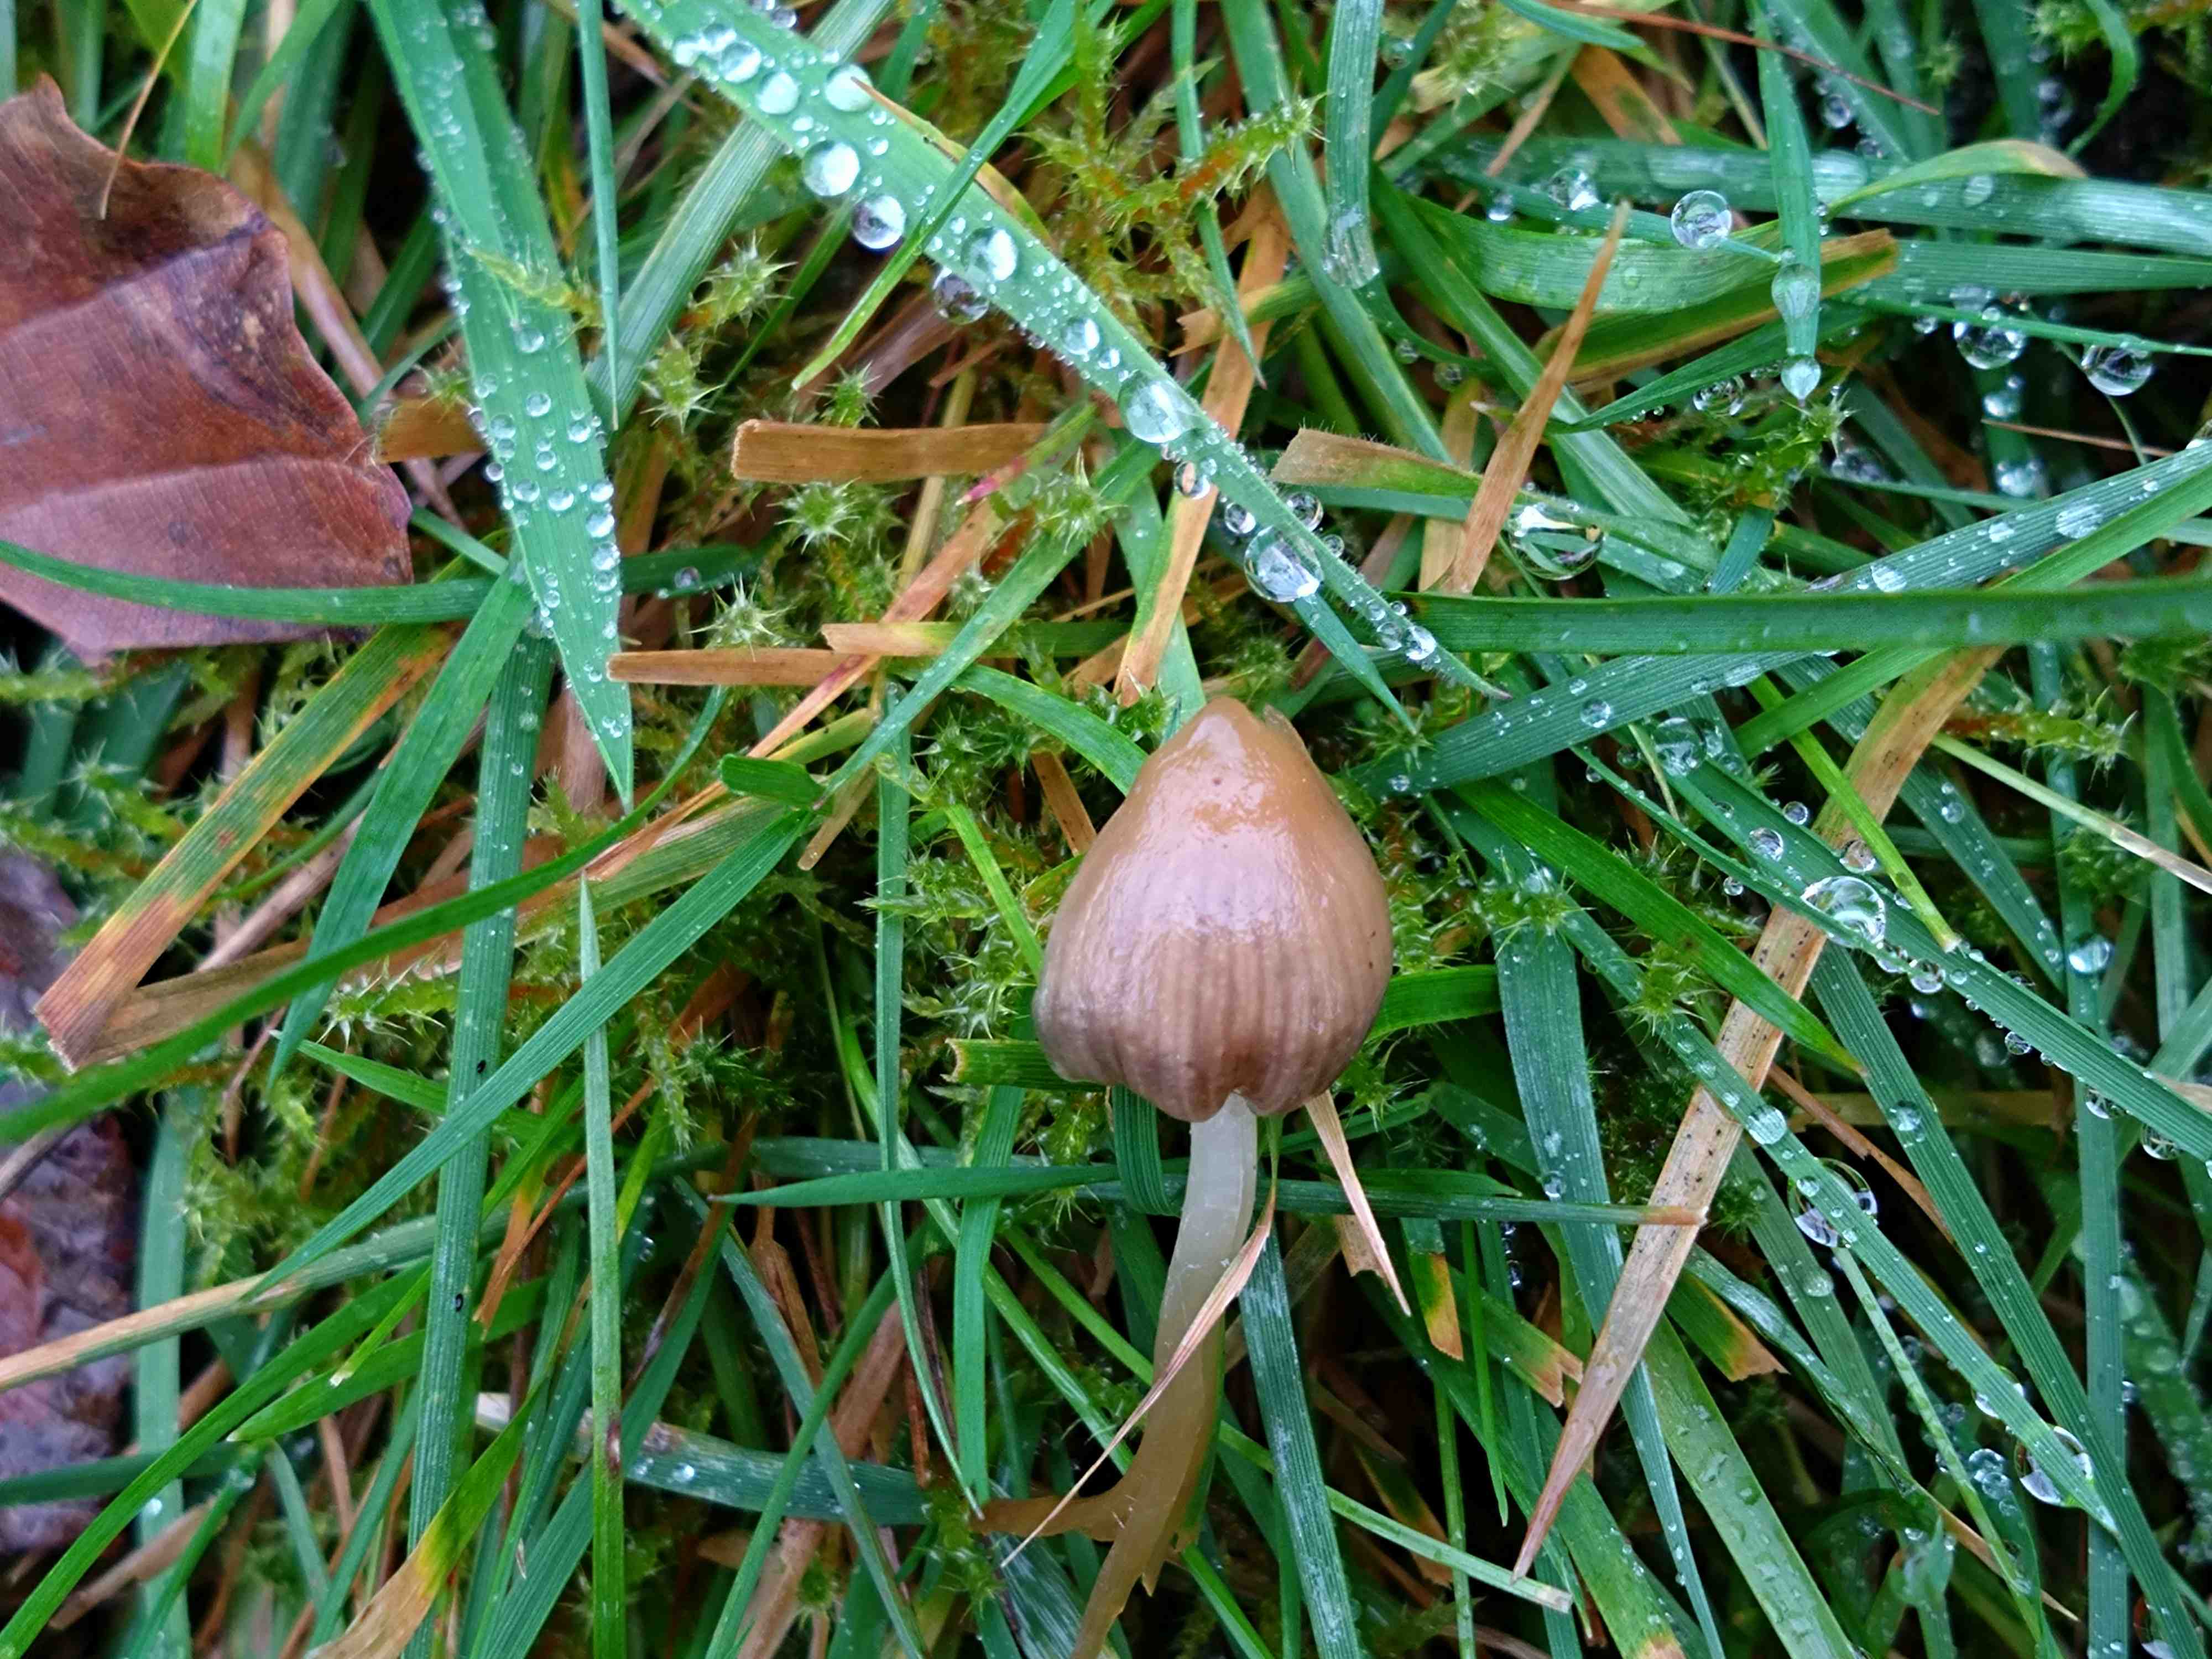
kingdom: Fungi
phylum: Basidiomycota
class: Agaricomycetes
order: Agaricales
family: Hymenogastraceae
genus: Psilocybe
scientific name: Psilocybe semilanceata
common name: spids nøgenhat
